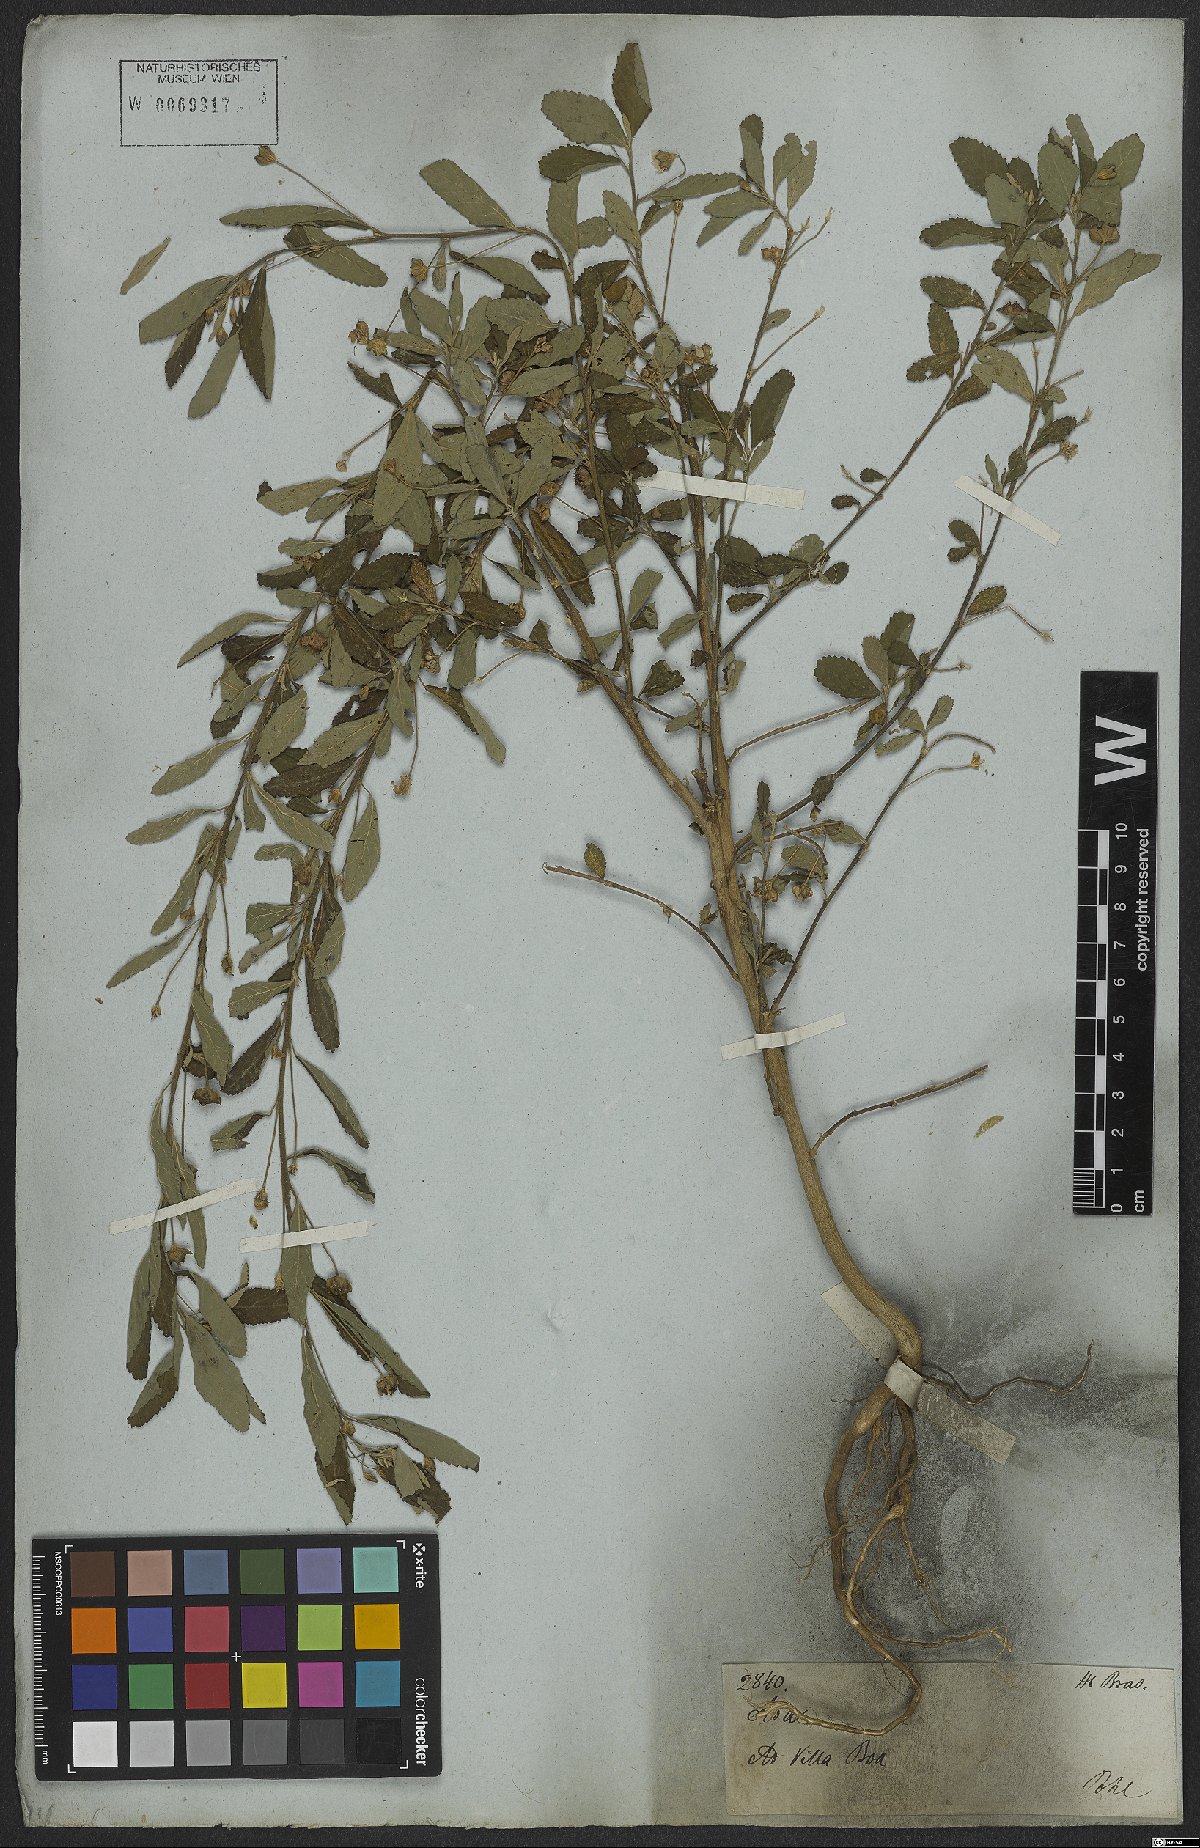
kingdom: Plantae
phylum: Tracheophyta
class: Magnoliopsida
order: Malvales
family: Malvaceae
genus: Sida
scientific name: Sida rhombifolia
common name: Queensland-hemp
